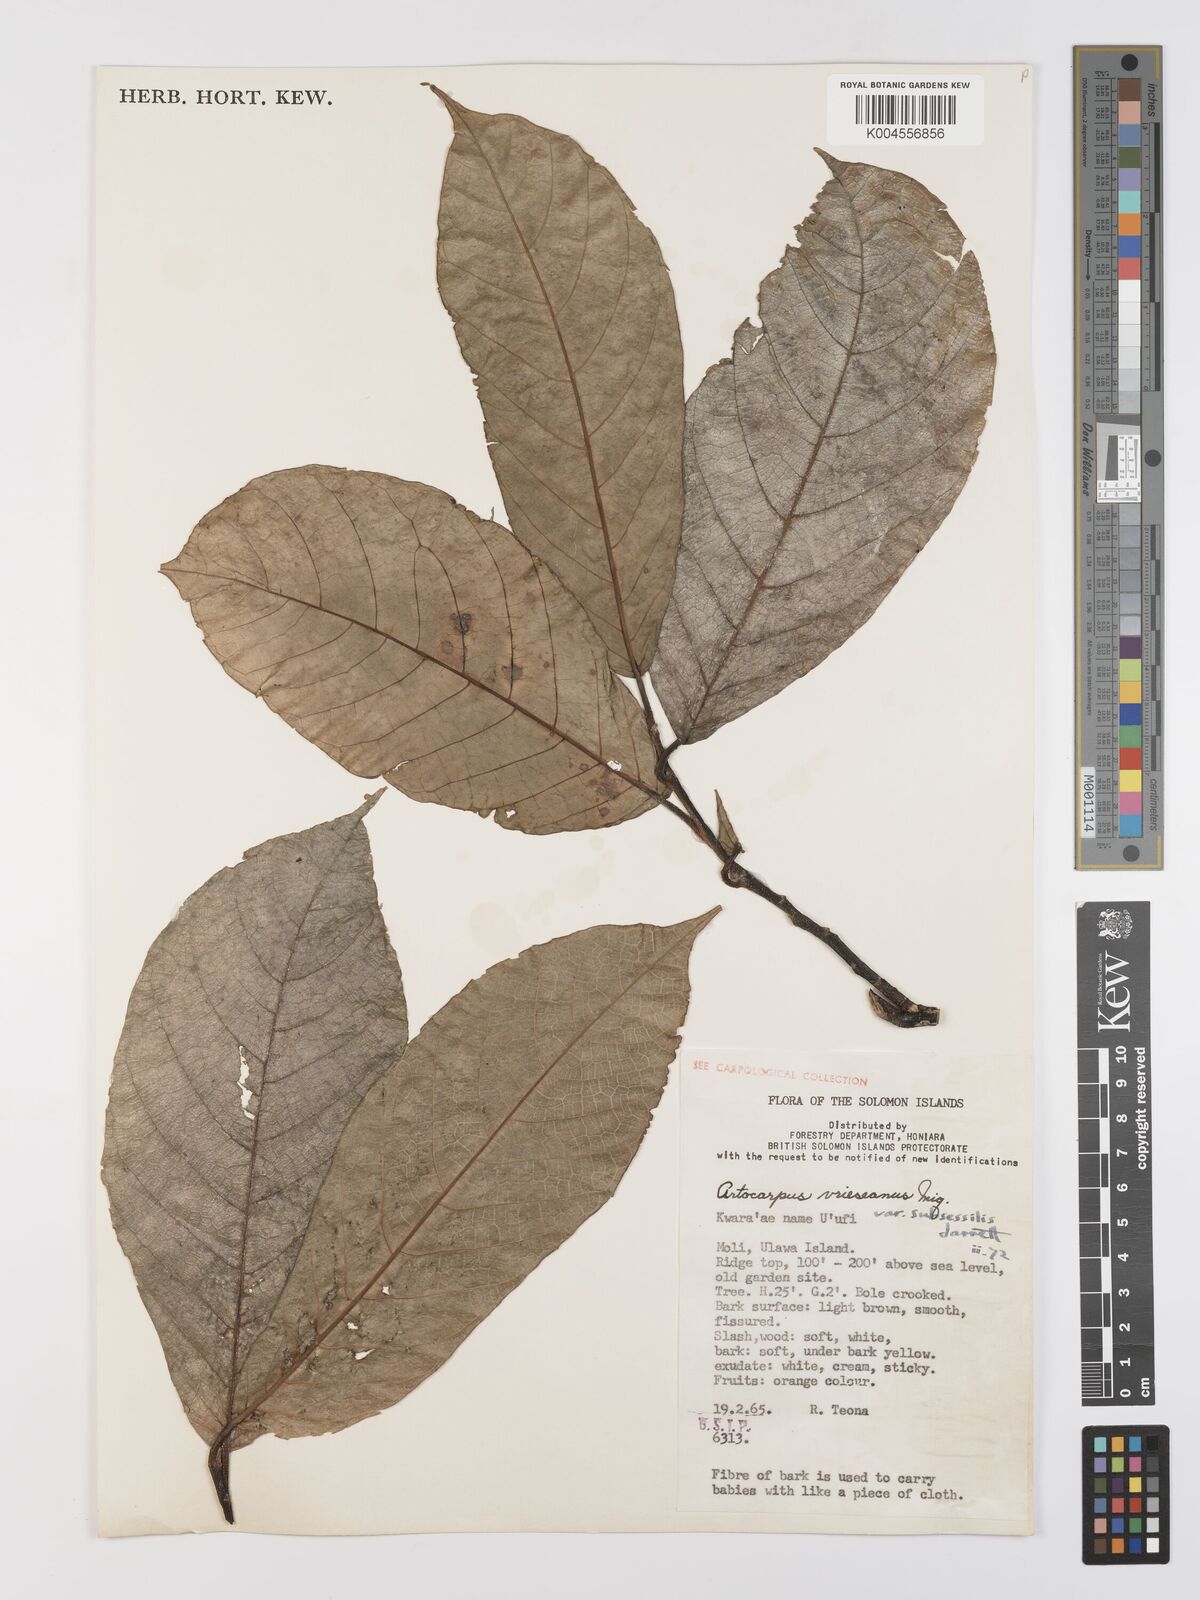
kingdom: Plantae
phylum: Tracheophyta
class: Magnoliopsida
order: Rosales
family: Moraceae
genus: Artocarpus
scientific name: Artocarpus vrieseanus
